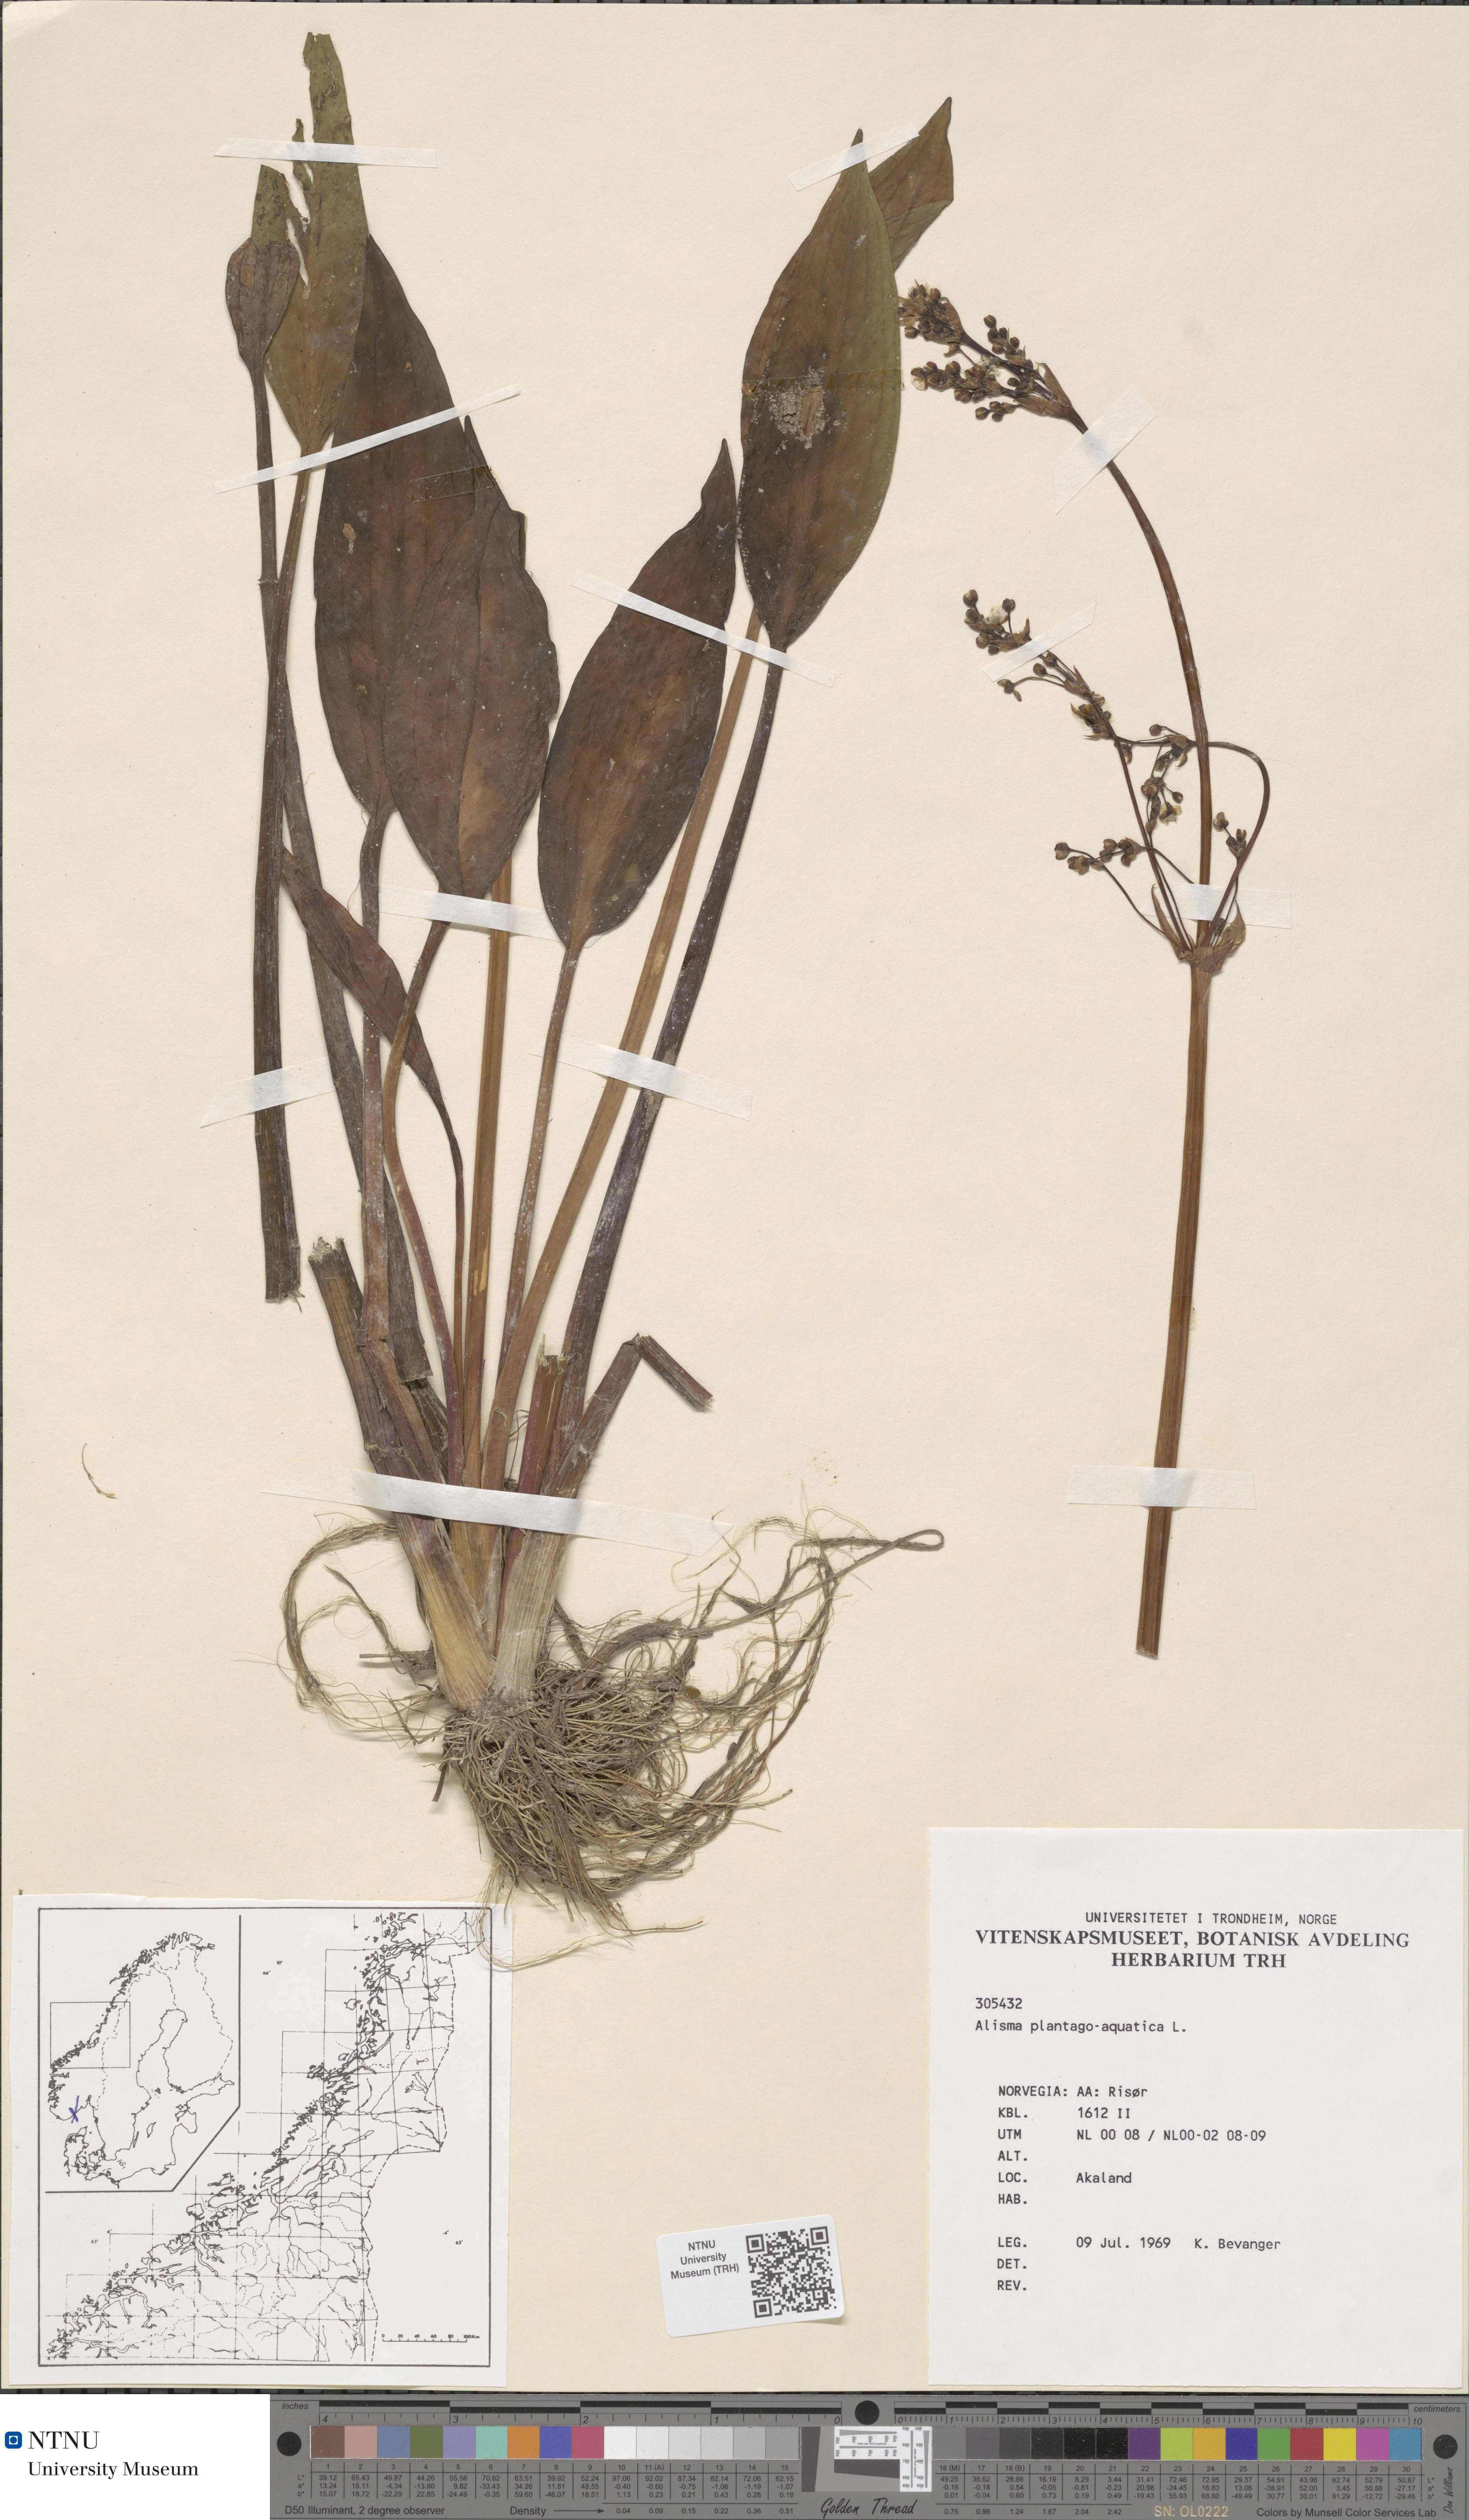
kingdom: Plantae
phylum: Tracheophyta
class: Liliopsida
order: Alismatales
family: Alismataceae
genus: Alisma
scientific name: Alisma plantago-aquatica
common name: Water-plantain
